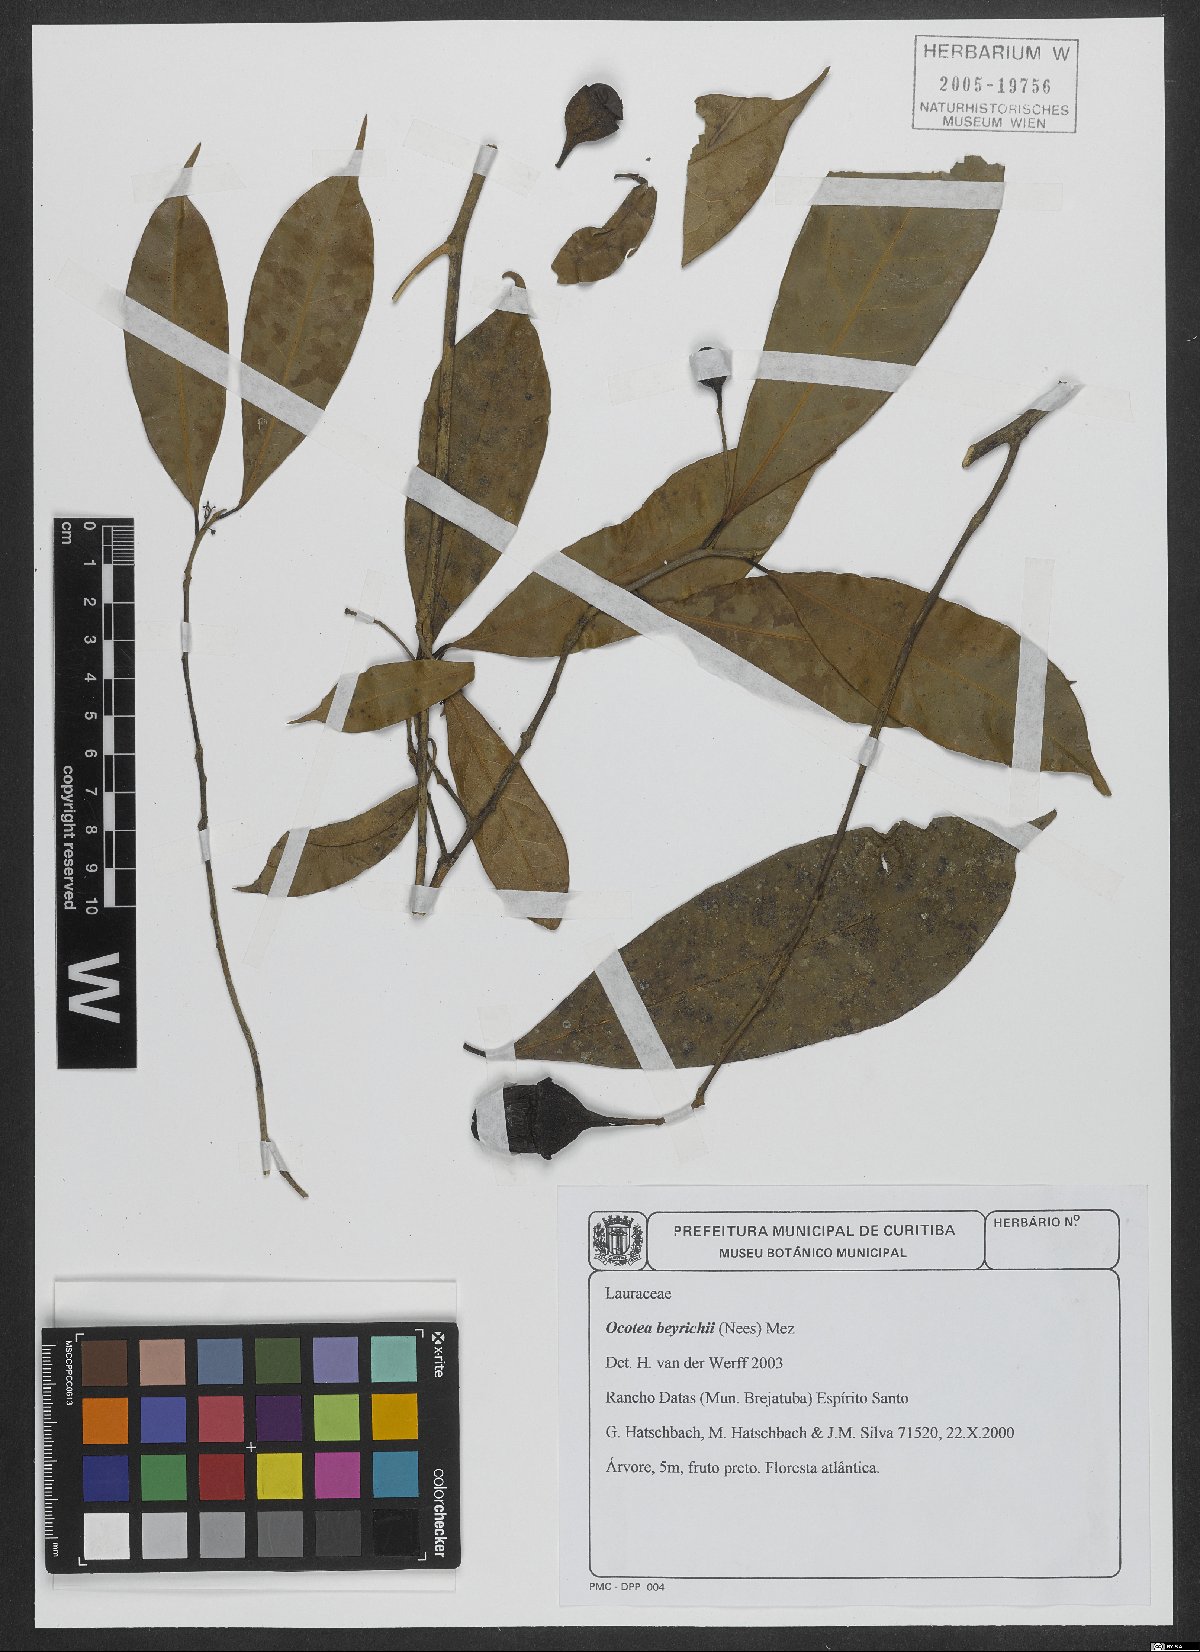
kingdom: Plantae
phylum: Tracheophyta
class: Magnoliopsida
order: Laurales
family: Lauraceae
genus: Ocotea
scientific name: Ocotea beyrichii
